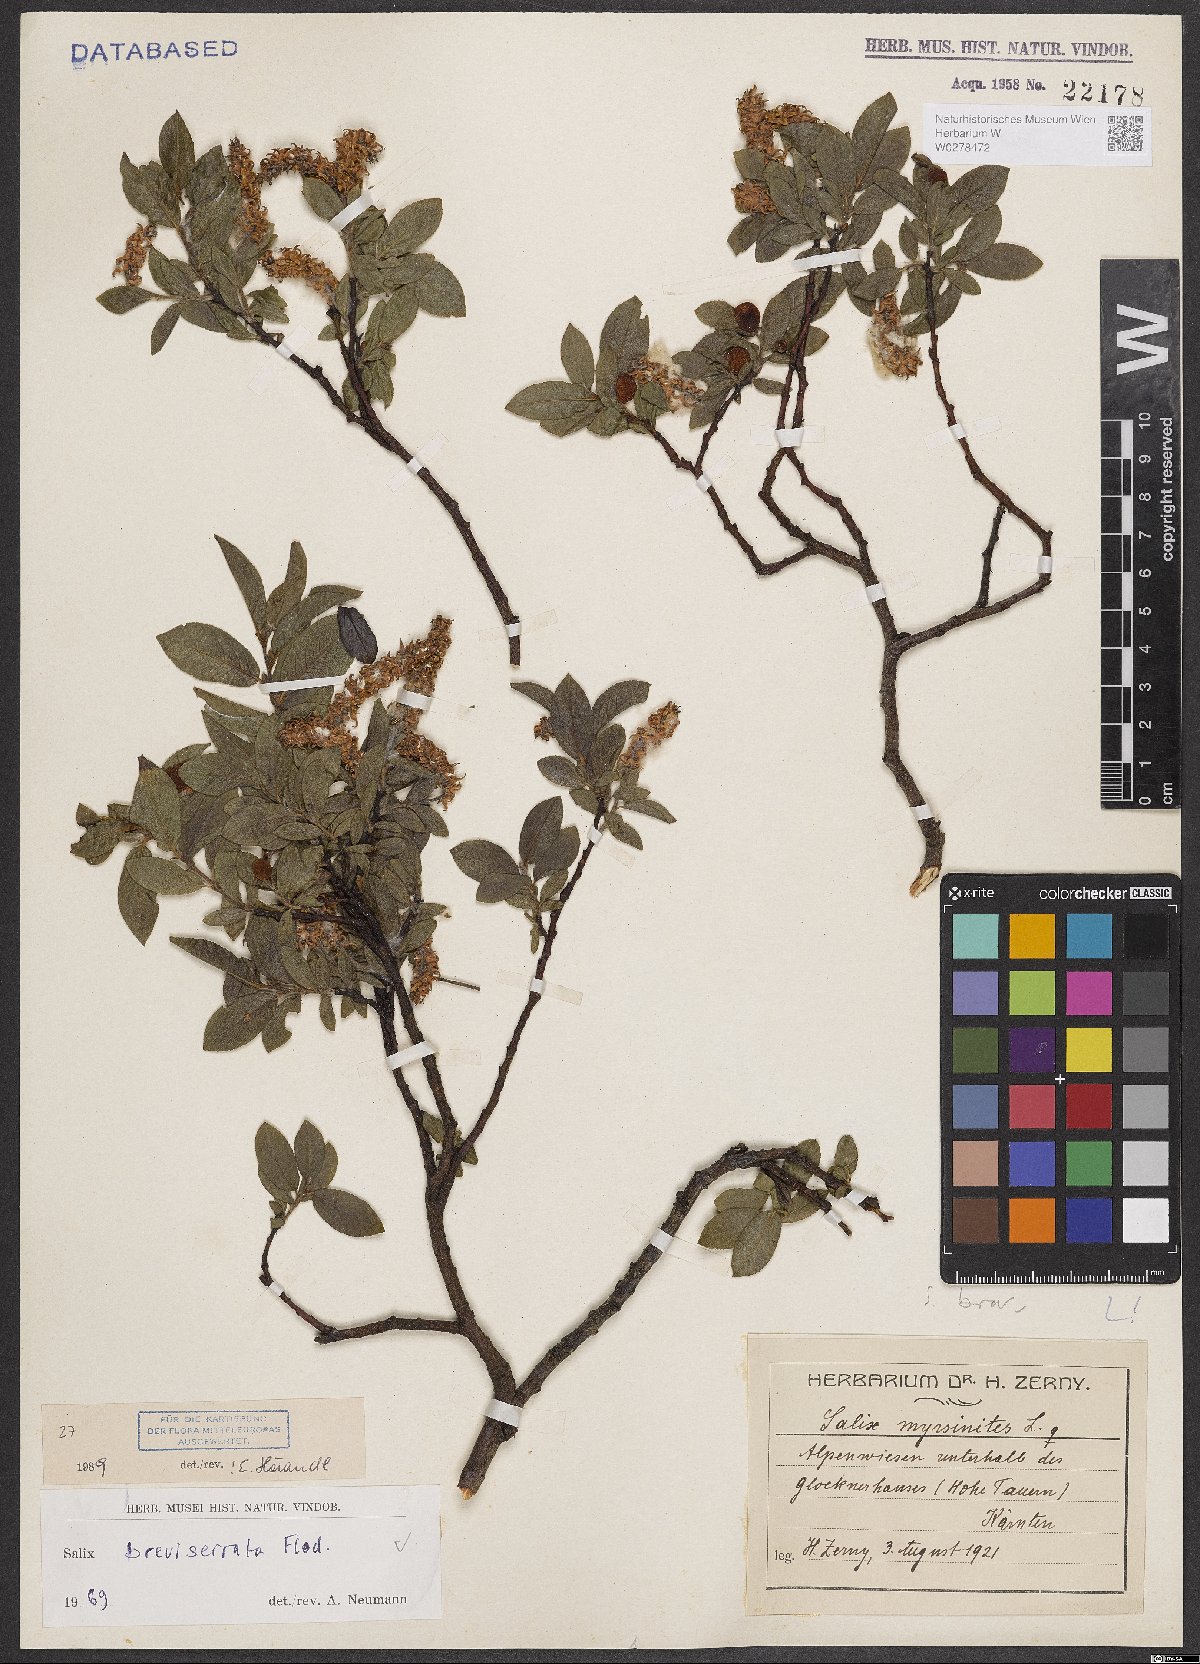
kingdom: Plantae
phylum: Tracheophyta
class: Magnoliopsida
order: Malpighiales
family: Salicaceae
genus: Salix
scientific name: Salix breviserrata
